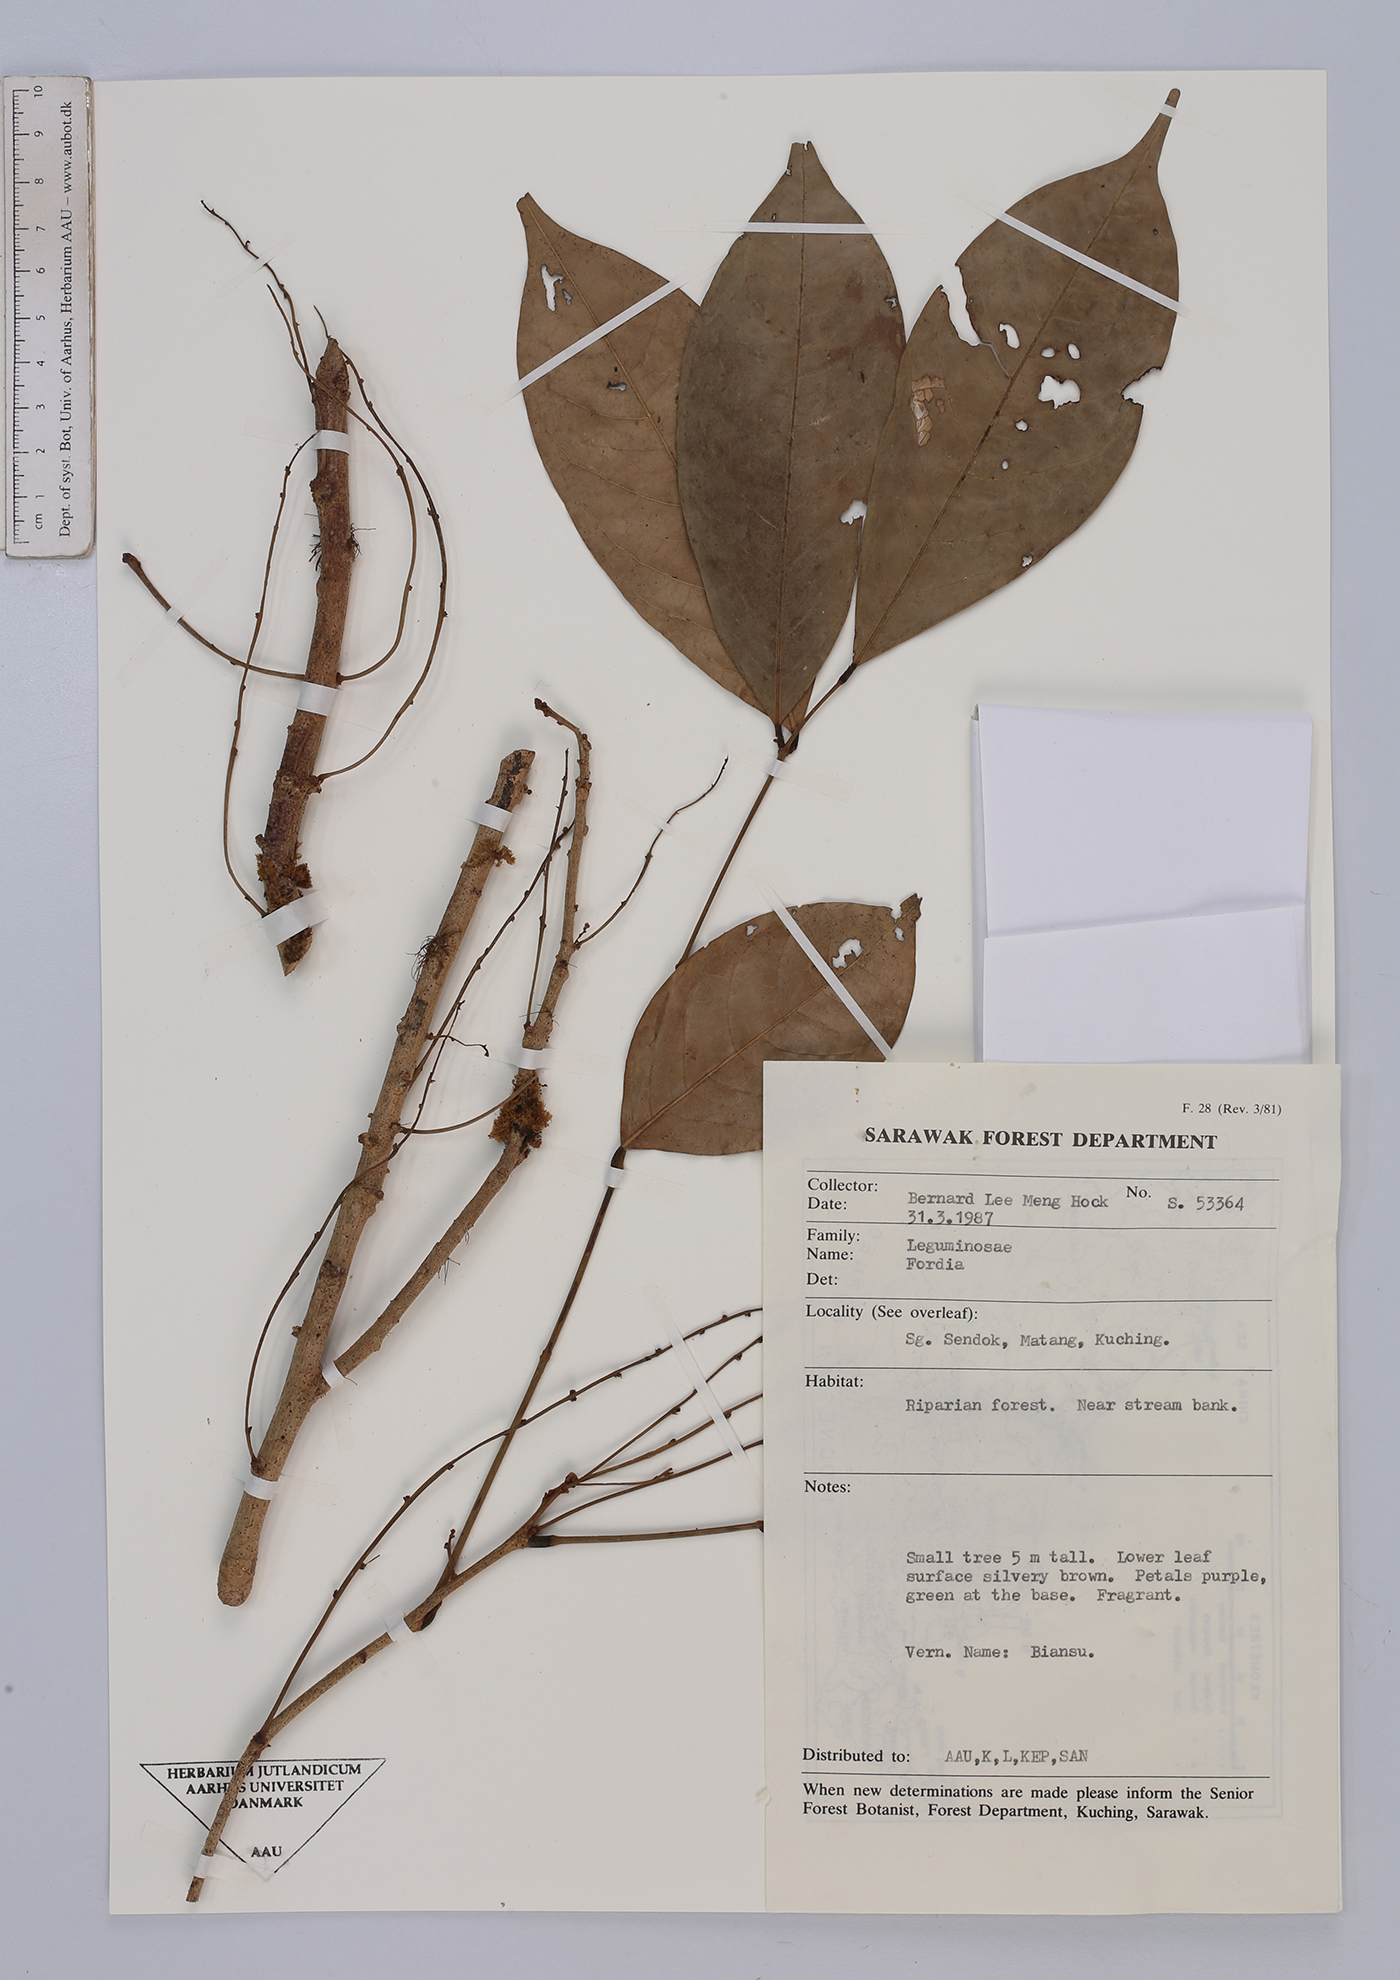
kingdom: Plantae
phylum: Tracheophyta
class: Magnoliopsida
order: Fabales
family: Fabaceae
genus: Fordia
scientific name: Fordia
